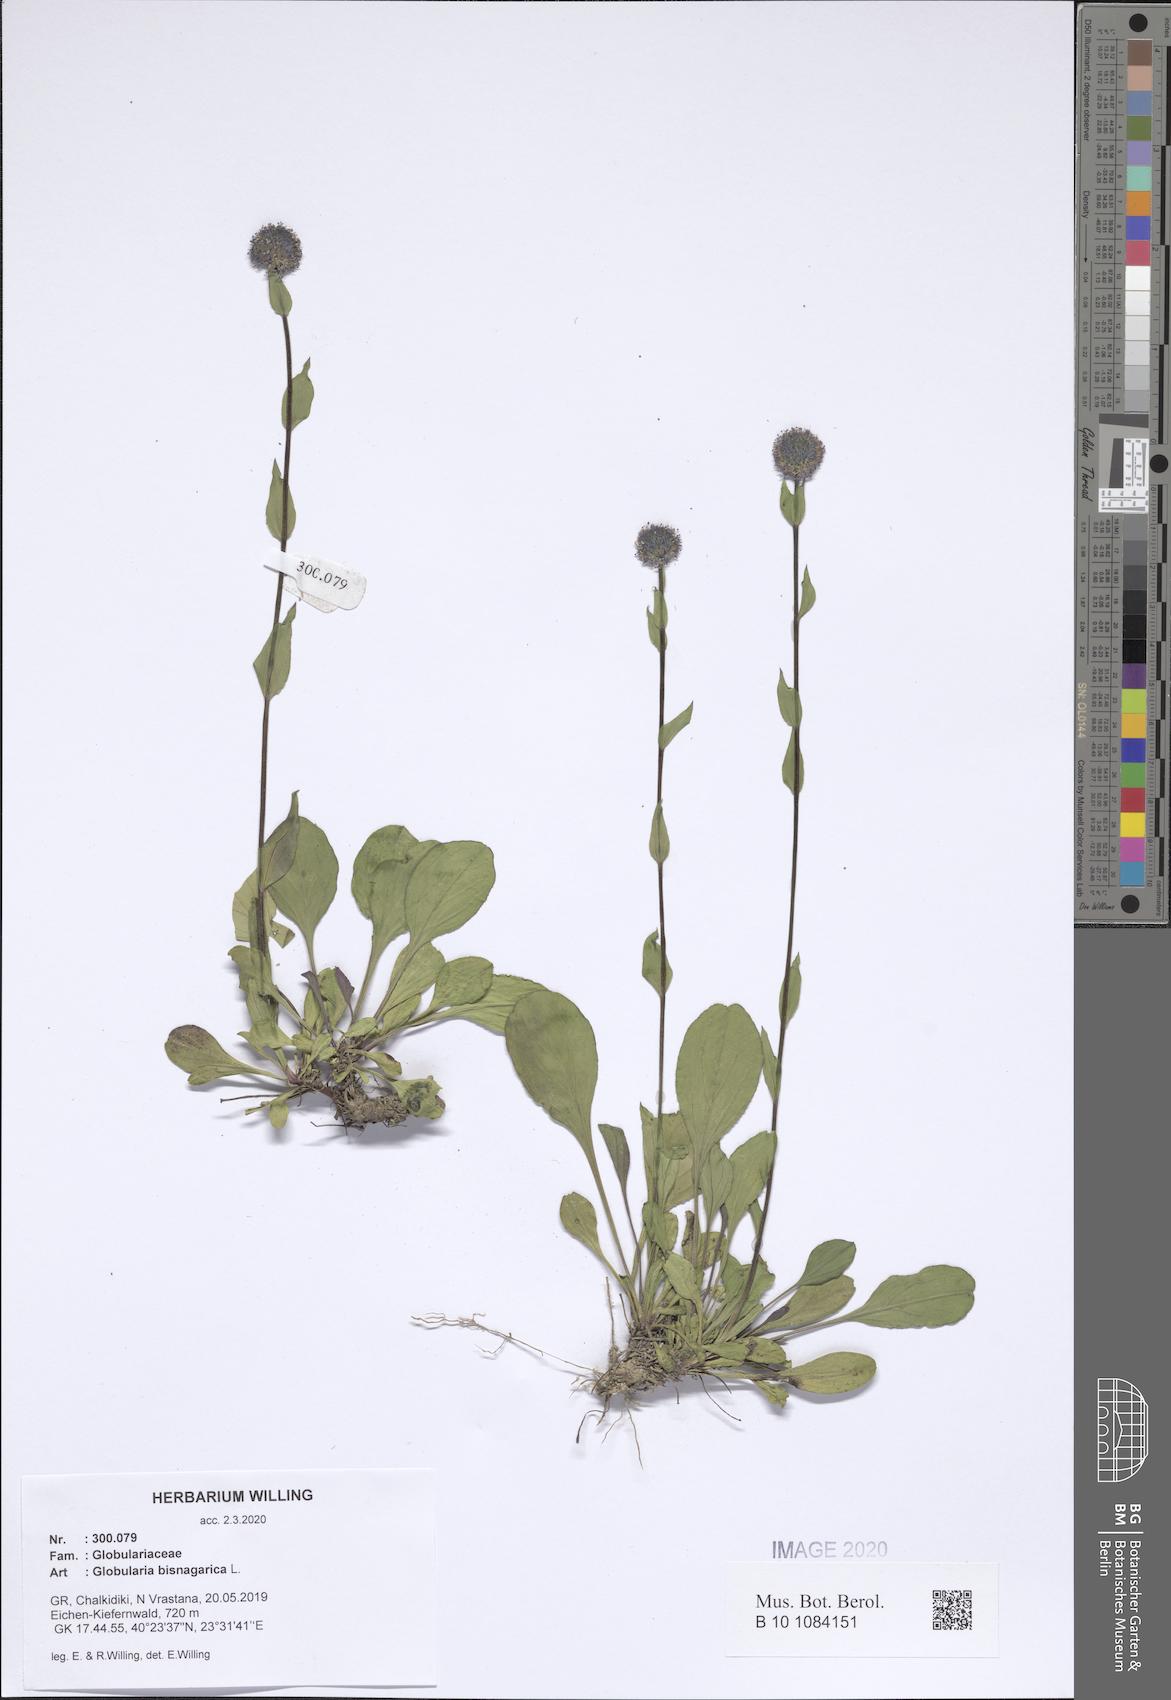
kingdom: Plantae
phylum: Tracheophyta
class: Magnoliopsida
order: Lamiales
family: Plantaginaceae
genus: Globularia
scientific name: Globularia bisnagarica
